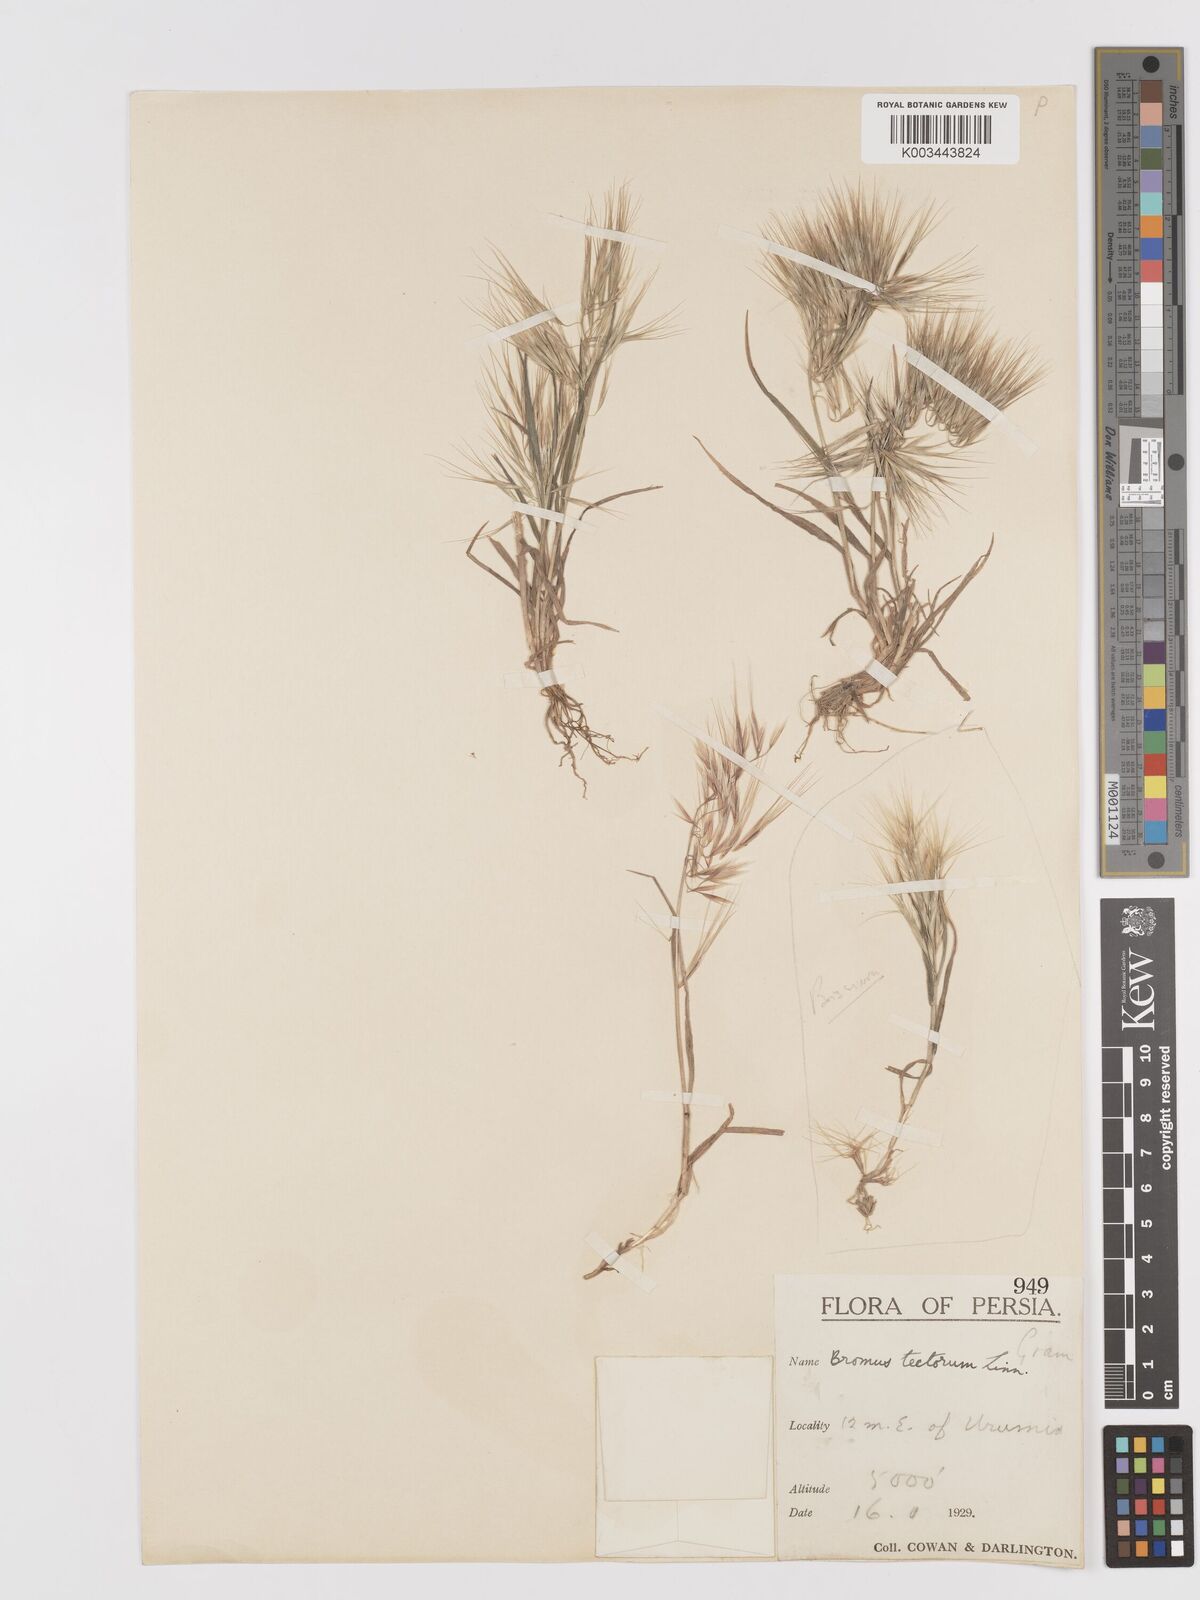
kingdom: Plantae
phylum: Tracheophyta
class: Liliopsida
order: Poales
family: Poaceae
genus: Bromus
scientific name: Bromus tectorum
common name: Cheatgrass
